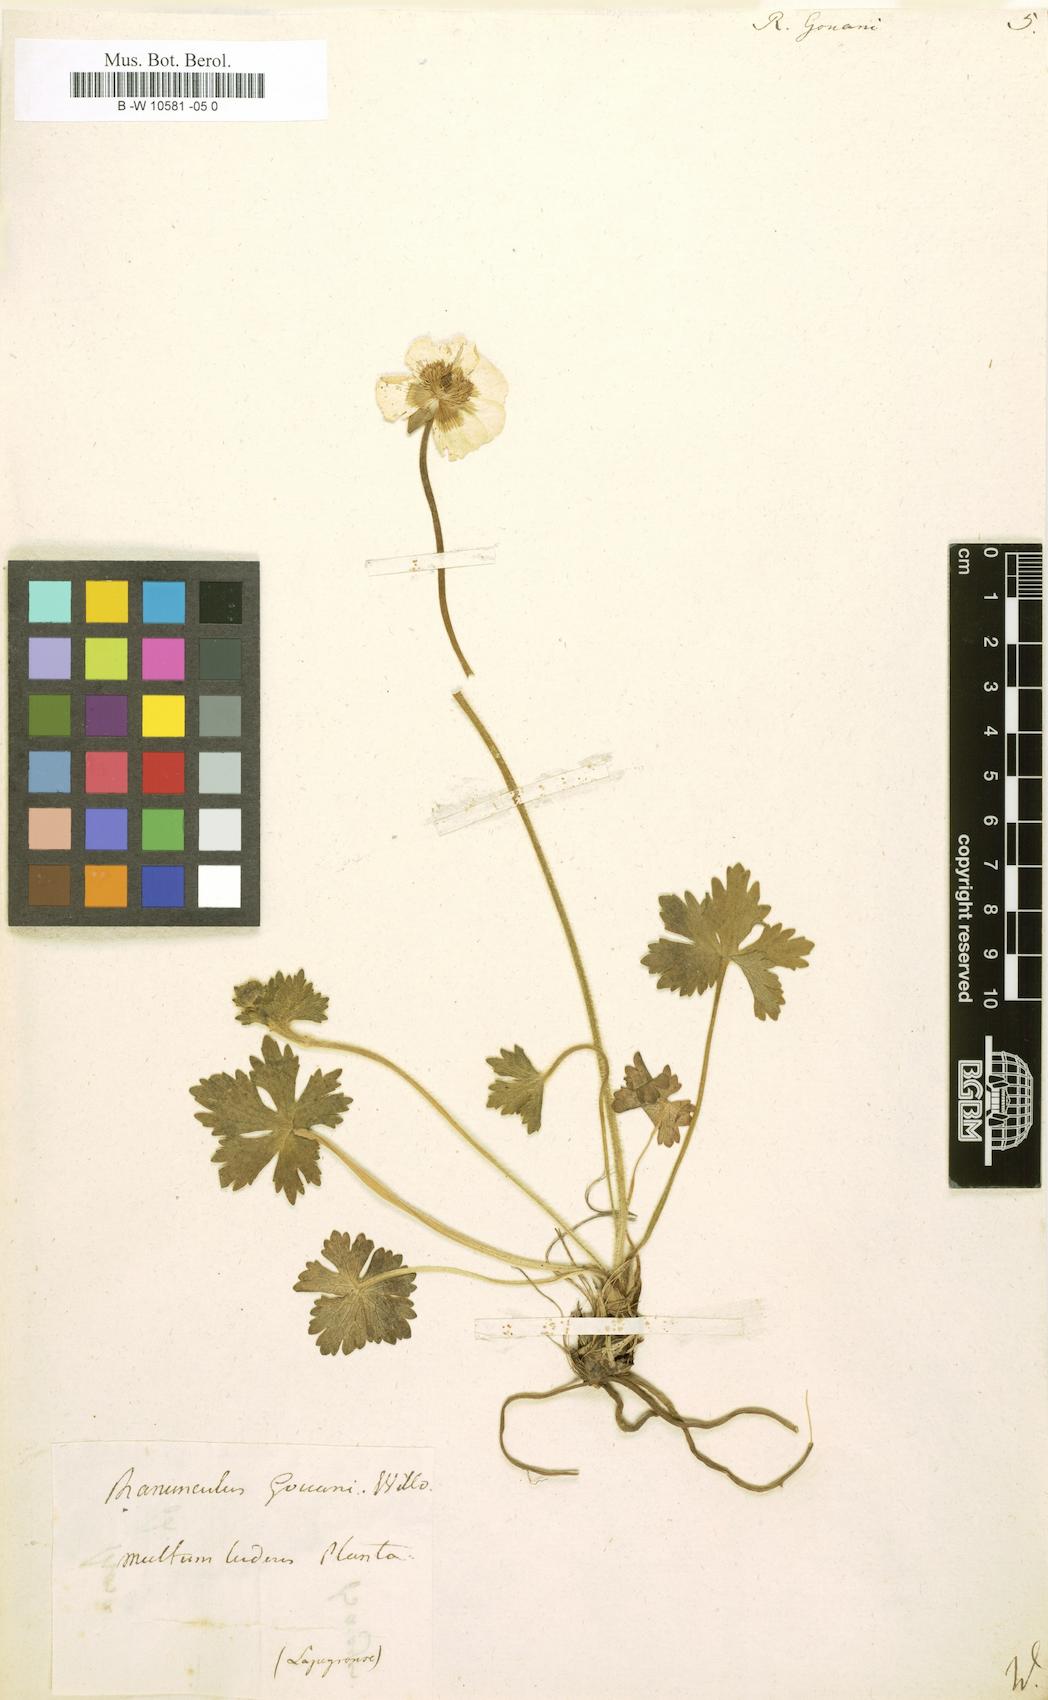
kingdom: Plantae
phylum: Tracheophyta
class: Magnoliopsida
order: Ranunculales
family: Ranunculaceae
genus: Ranunculus
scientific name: Ranunculus gouani
